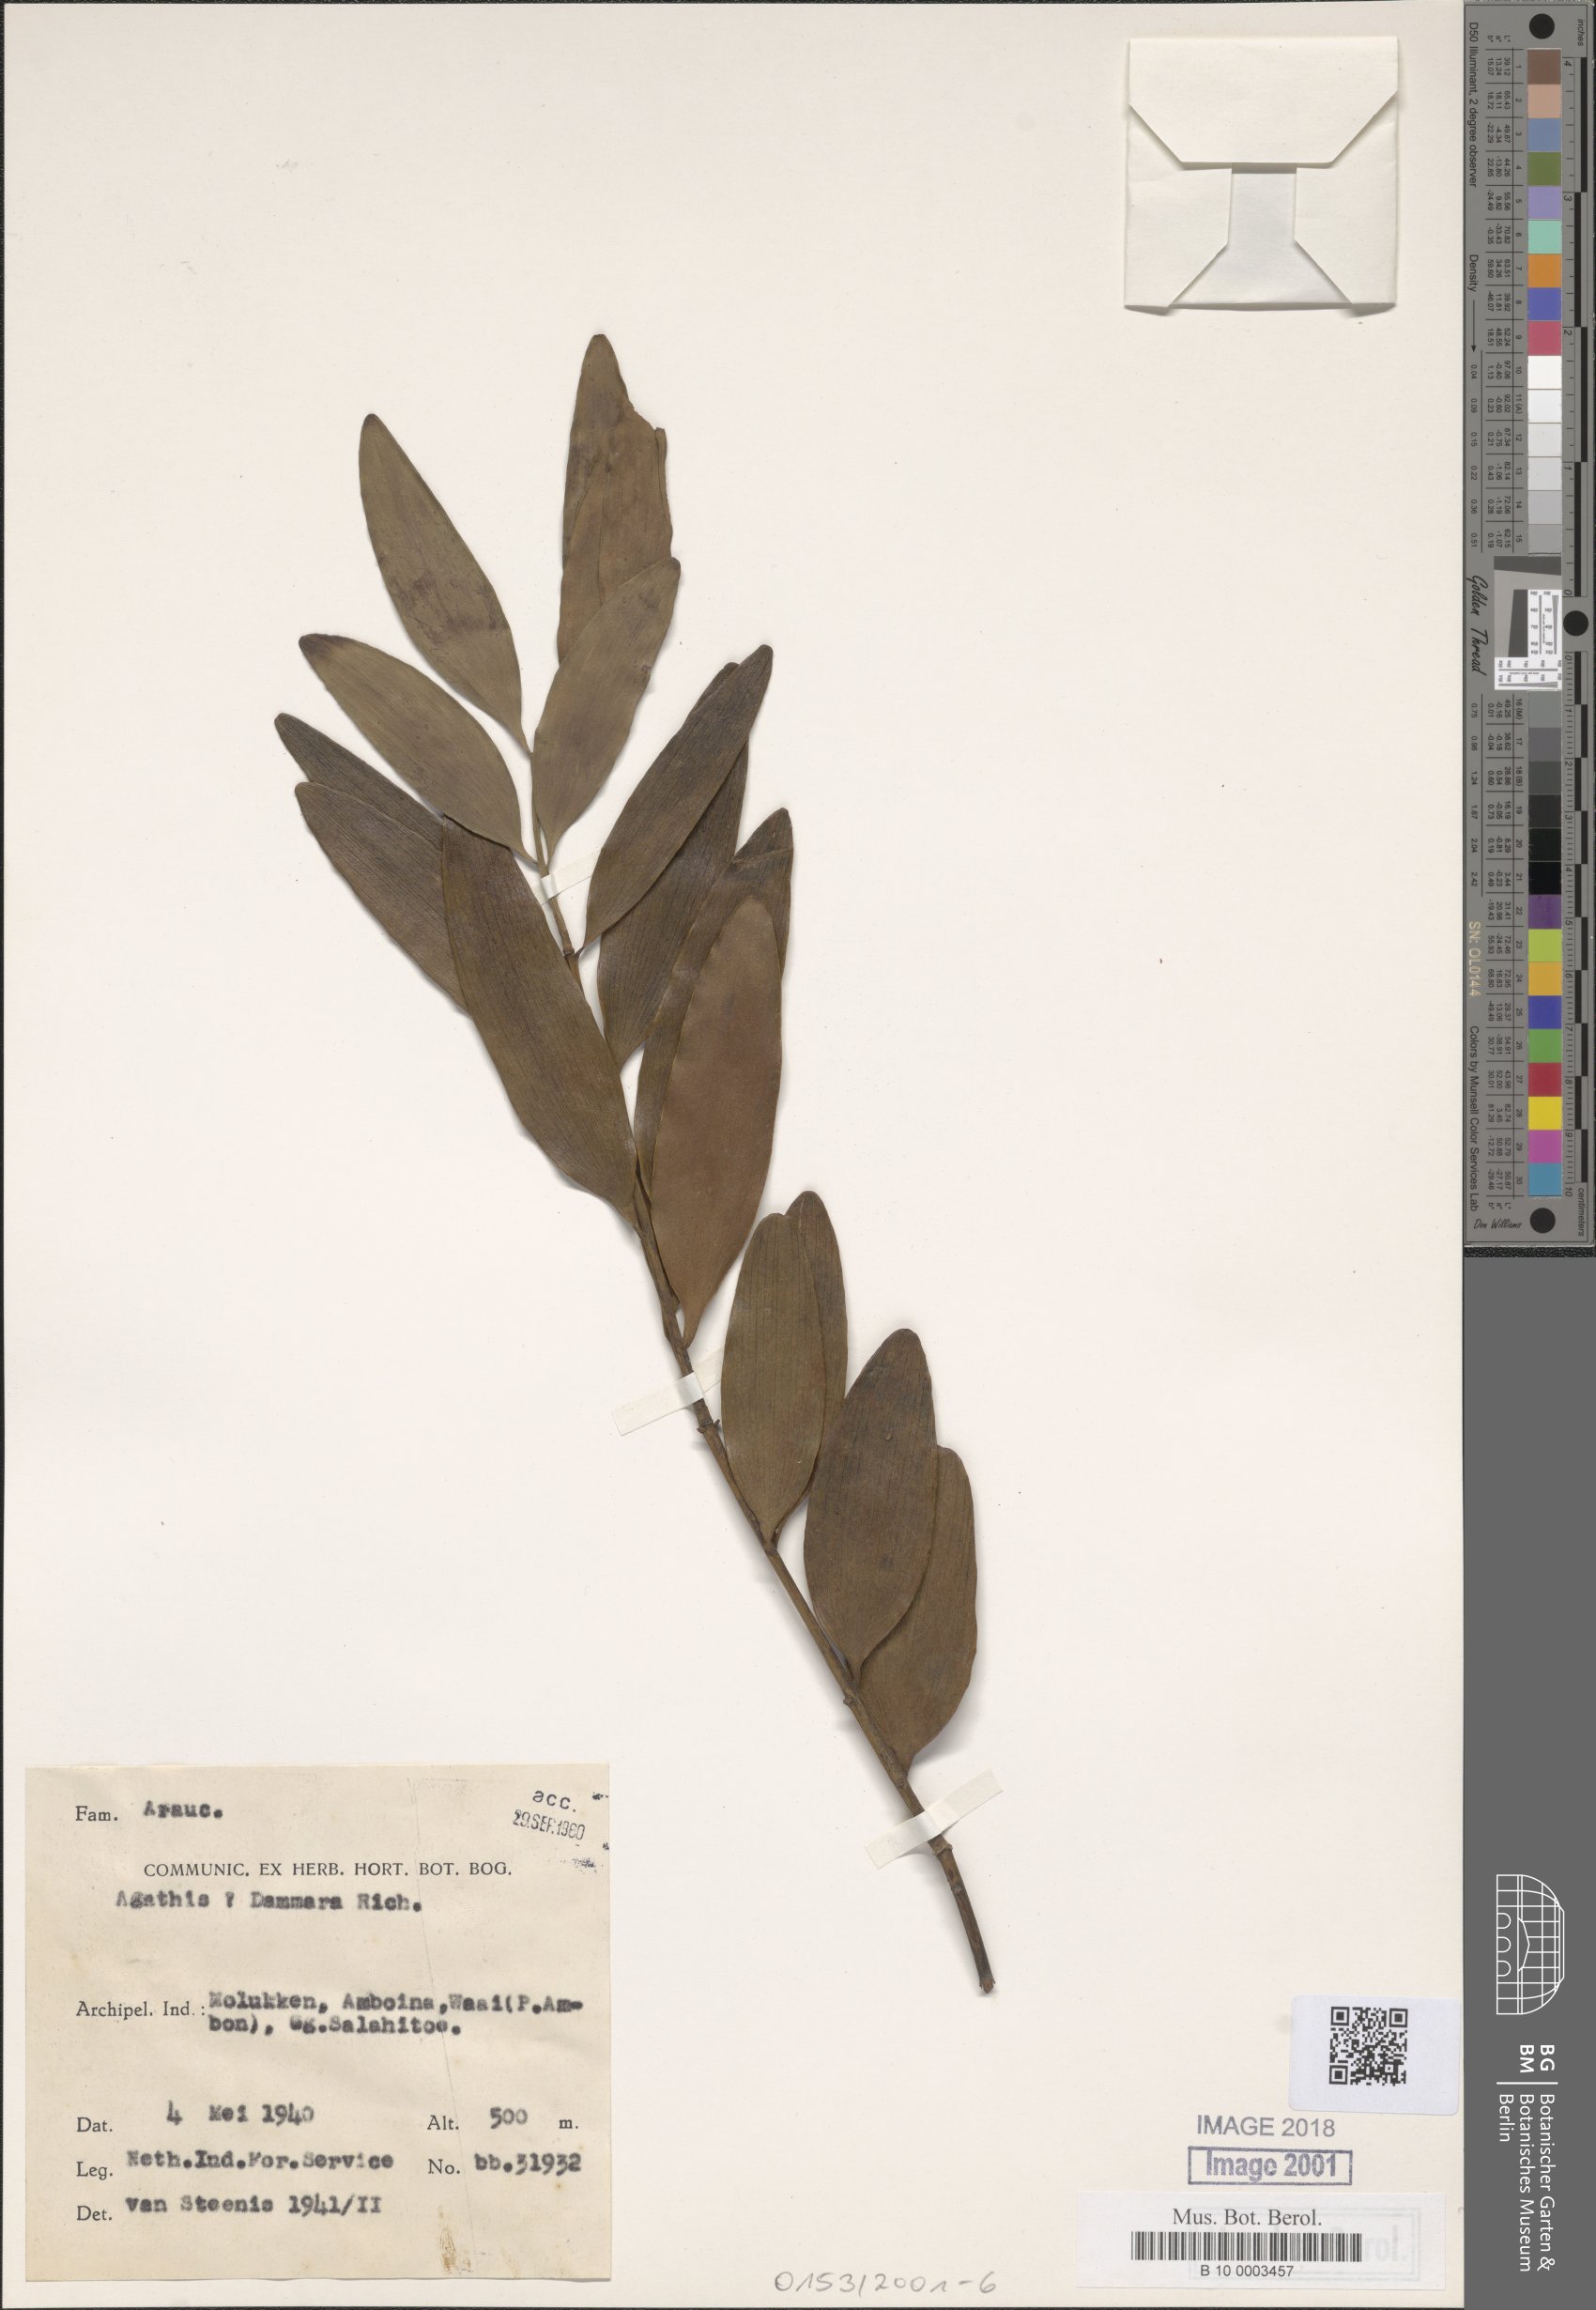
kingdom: Plantae
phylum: Tracheophyta
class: Pinopsida
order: Pinales
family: Araucariaceae
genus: Agathis
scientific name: Agathis dammara
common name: Amboina pitch tree
